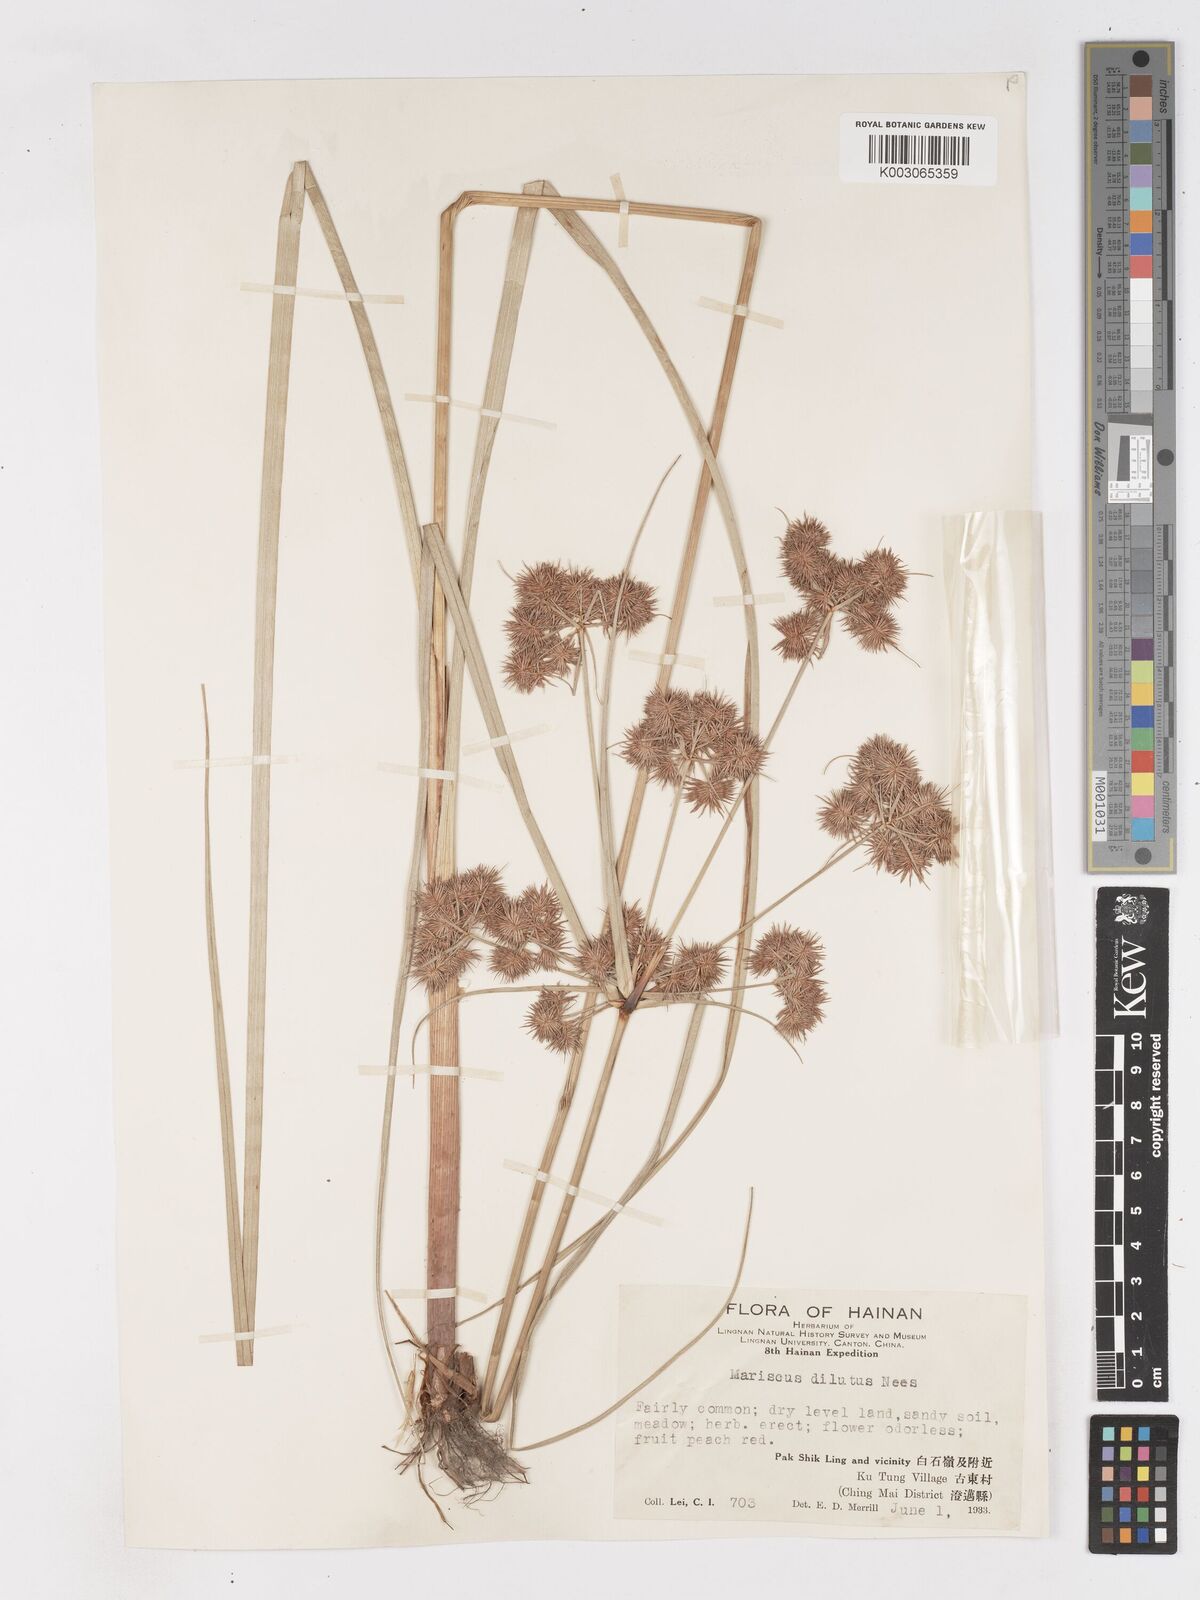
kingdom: Plantae
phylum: Tracheophyta
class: Liliopsida
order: Poales
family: Cyperaceae
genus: Cyperus
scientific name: Cyperus compactus
